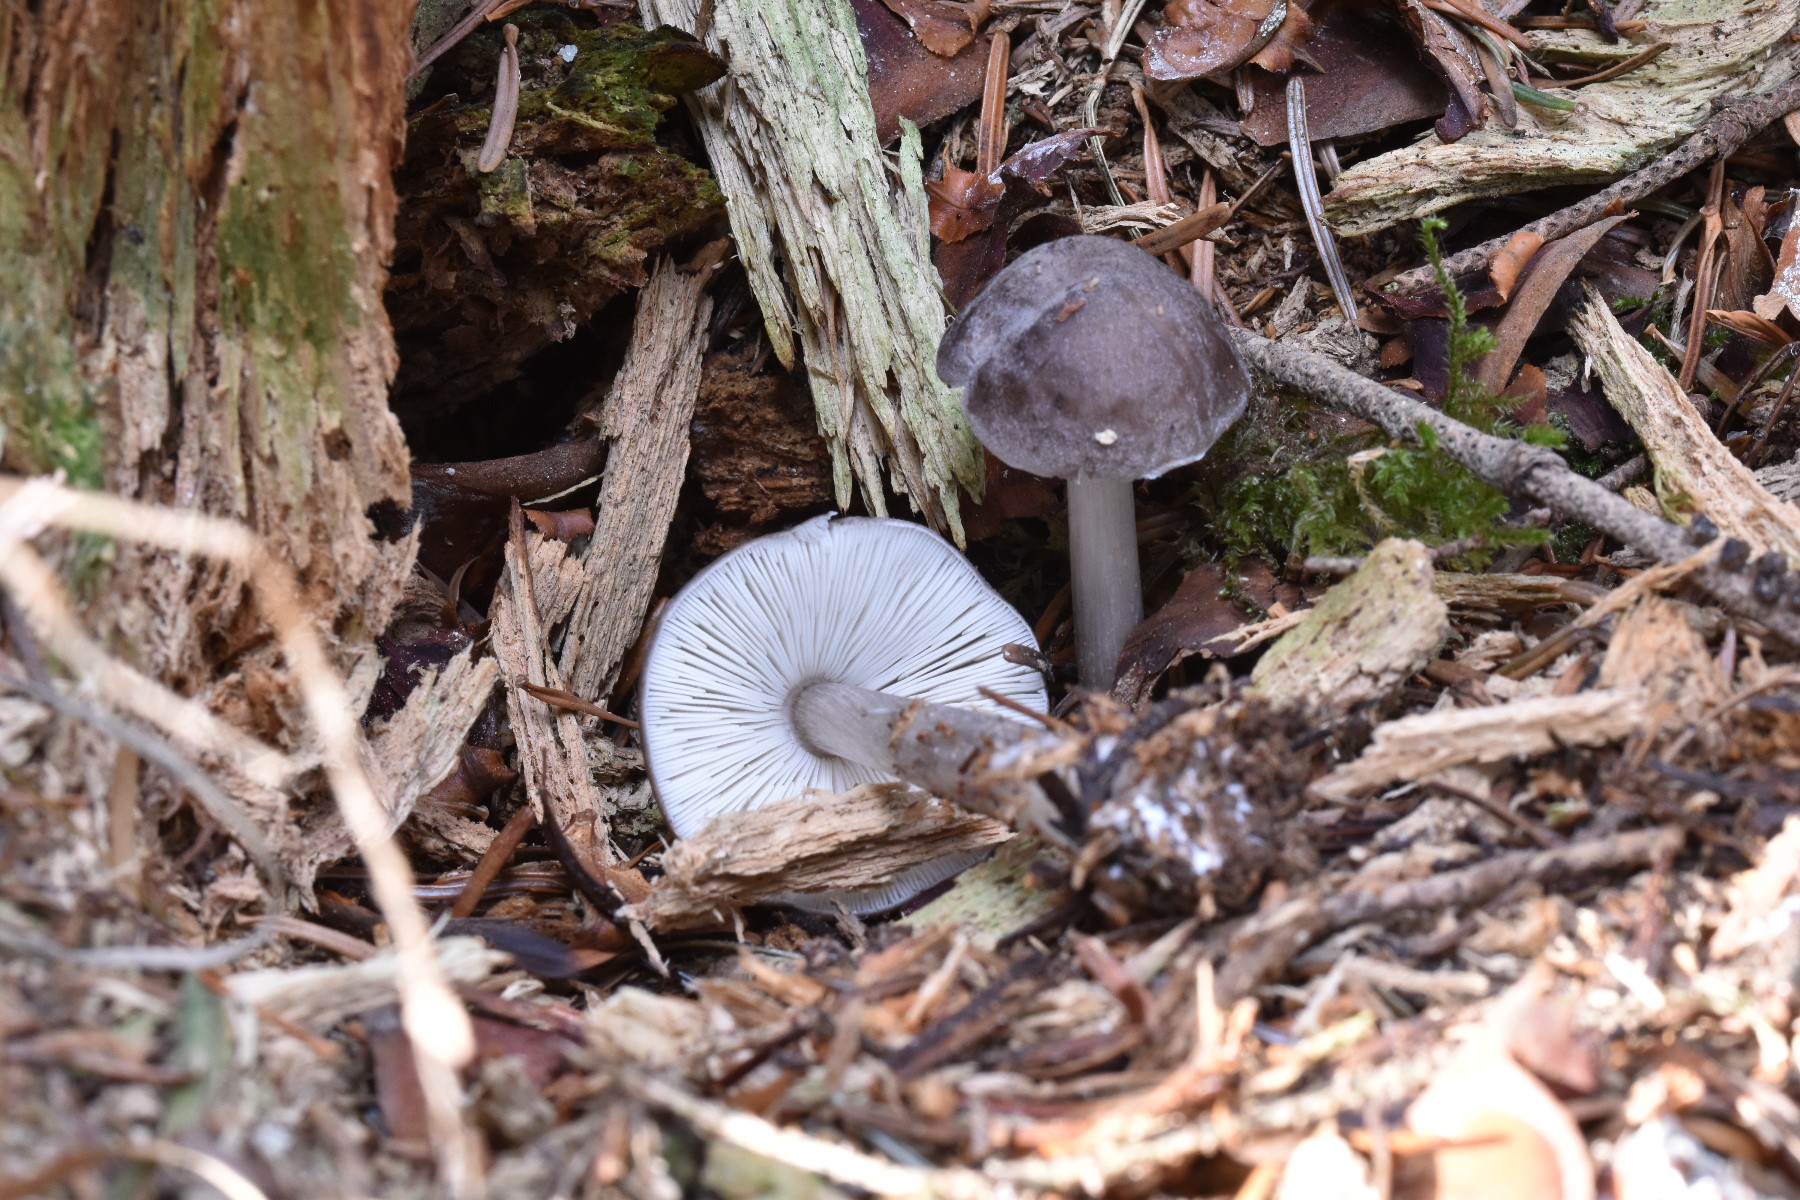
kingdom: Fungi
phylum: Basidiomycota
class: Agaricomycetes
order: Agaricales
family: Pluteaceae
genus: Pluteus
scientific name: Pluteus pouzarianus
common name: plantage-skærmhat
